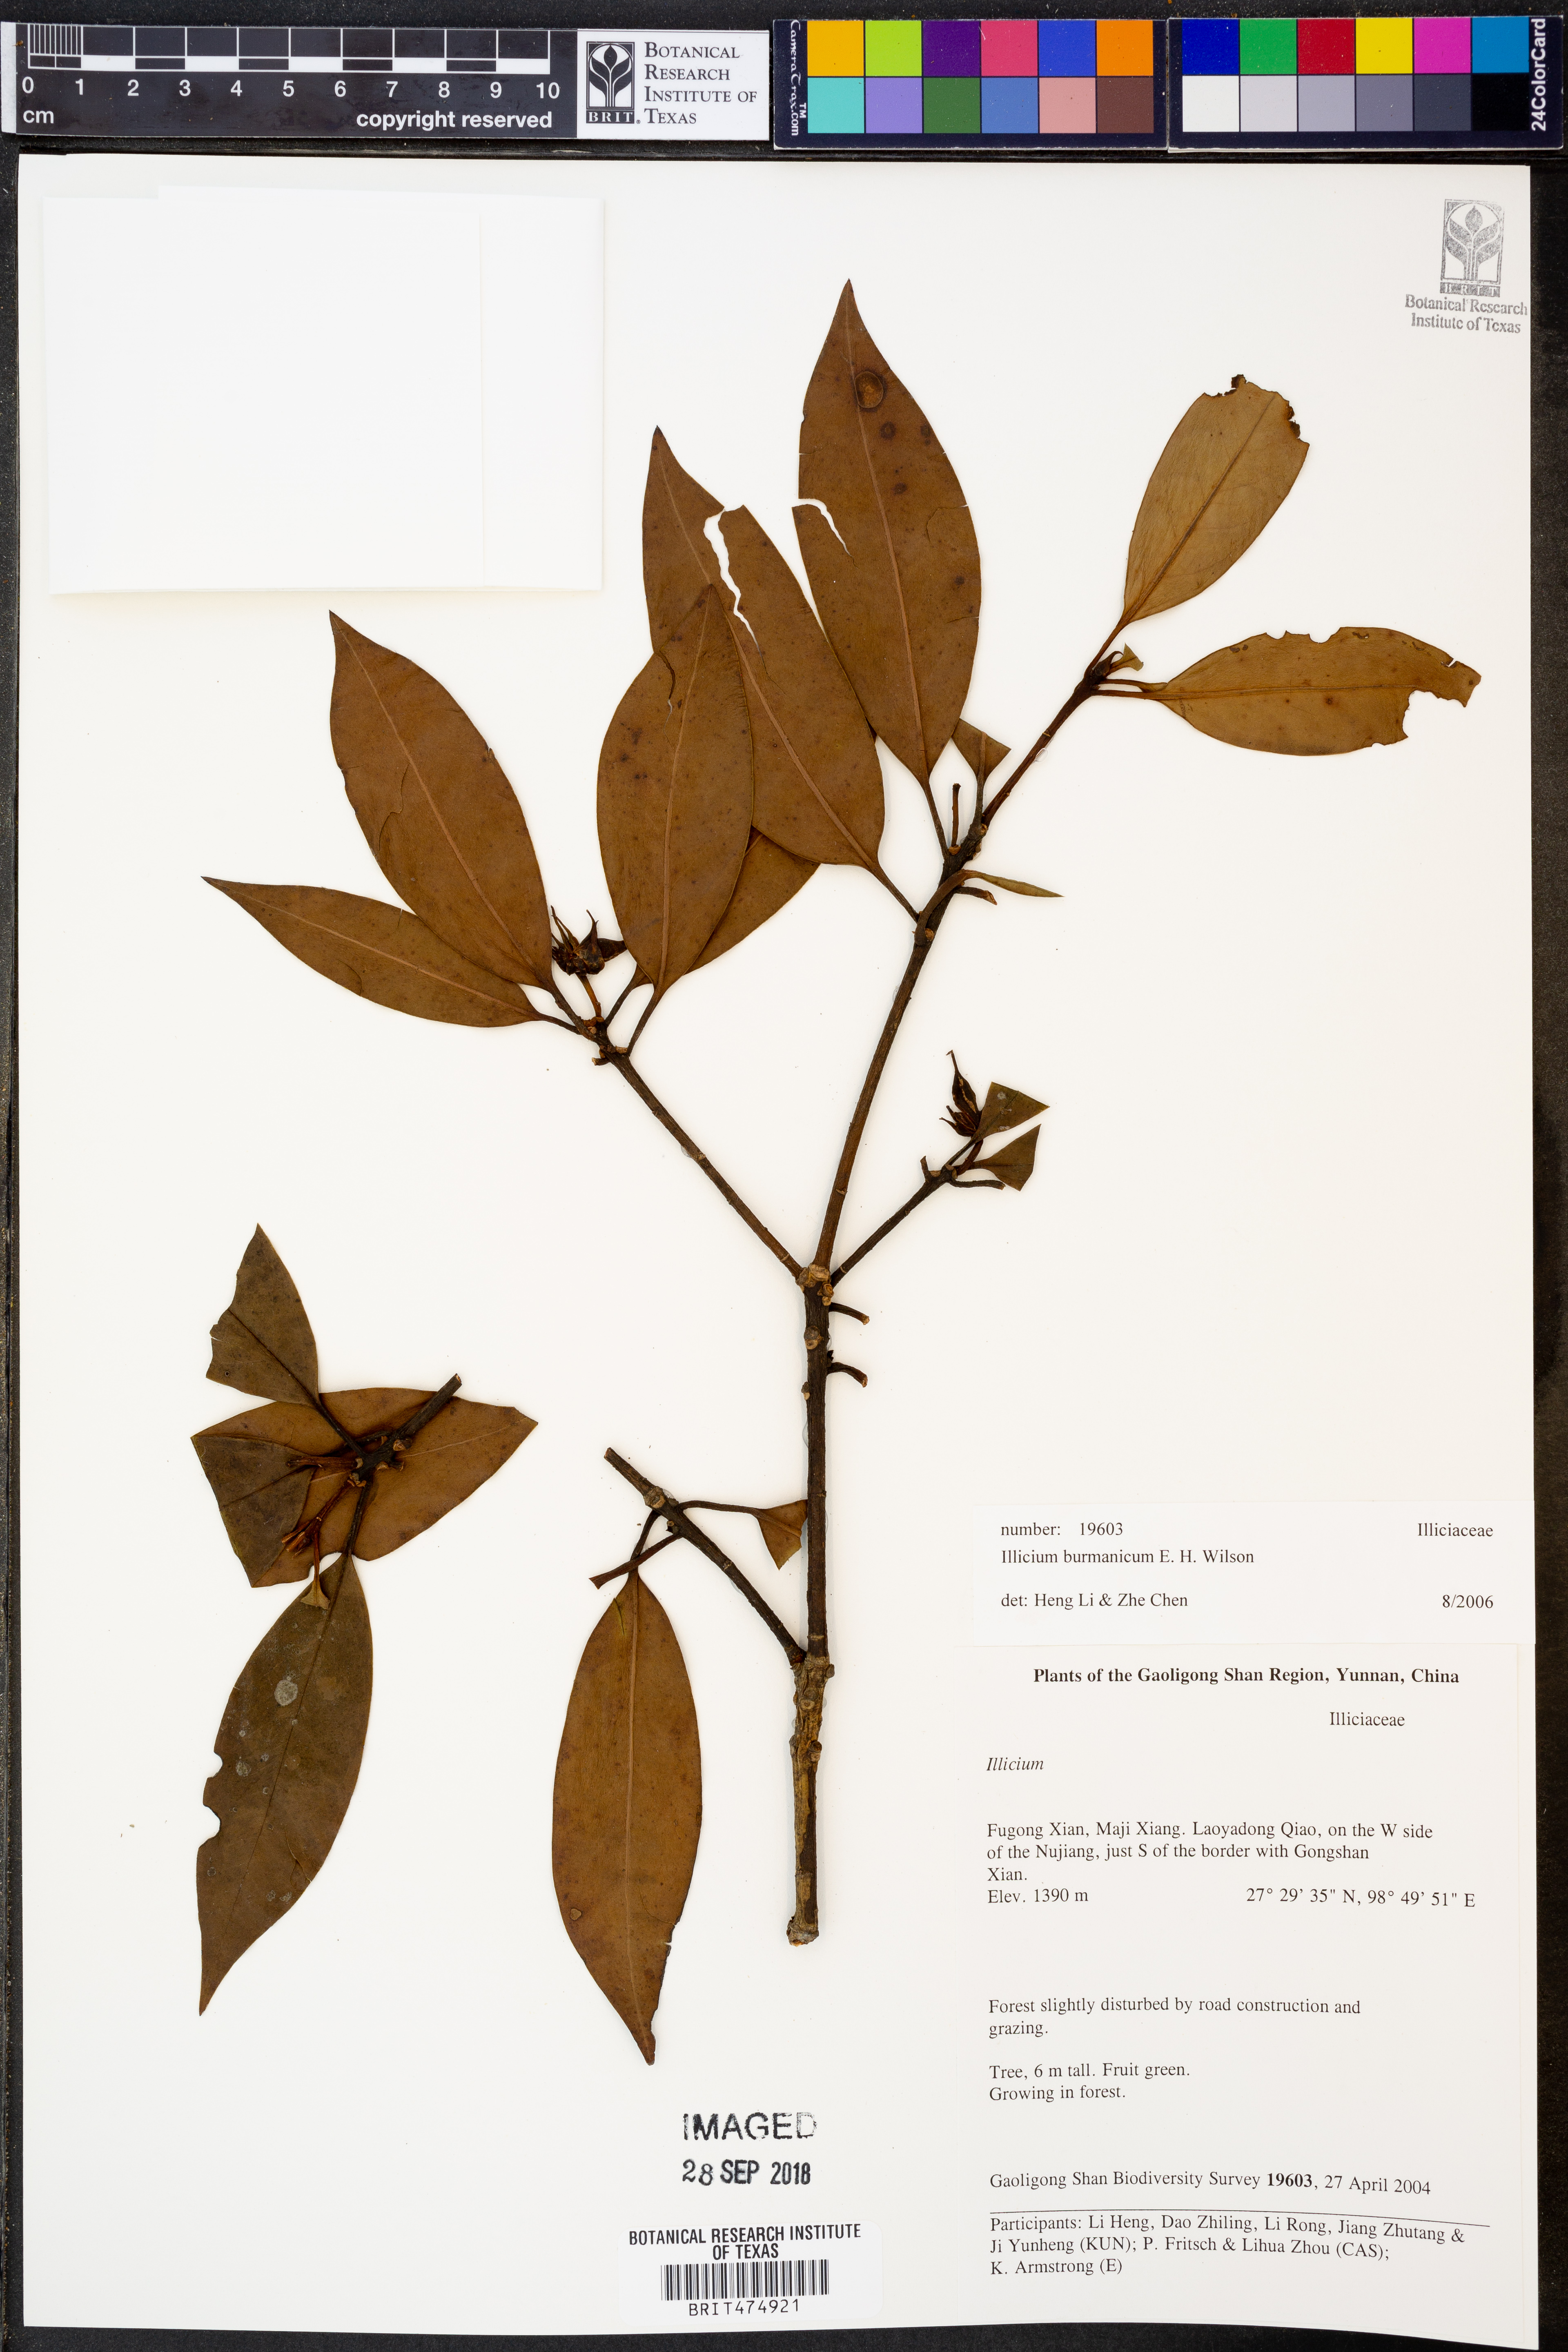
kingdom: Plantae
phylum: Tracheophyta
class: Magnoliopsida
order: Austrobaileyales
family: Schisandraceae
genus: Illicium
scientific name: Illicium burmanicum
